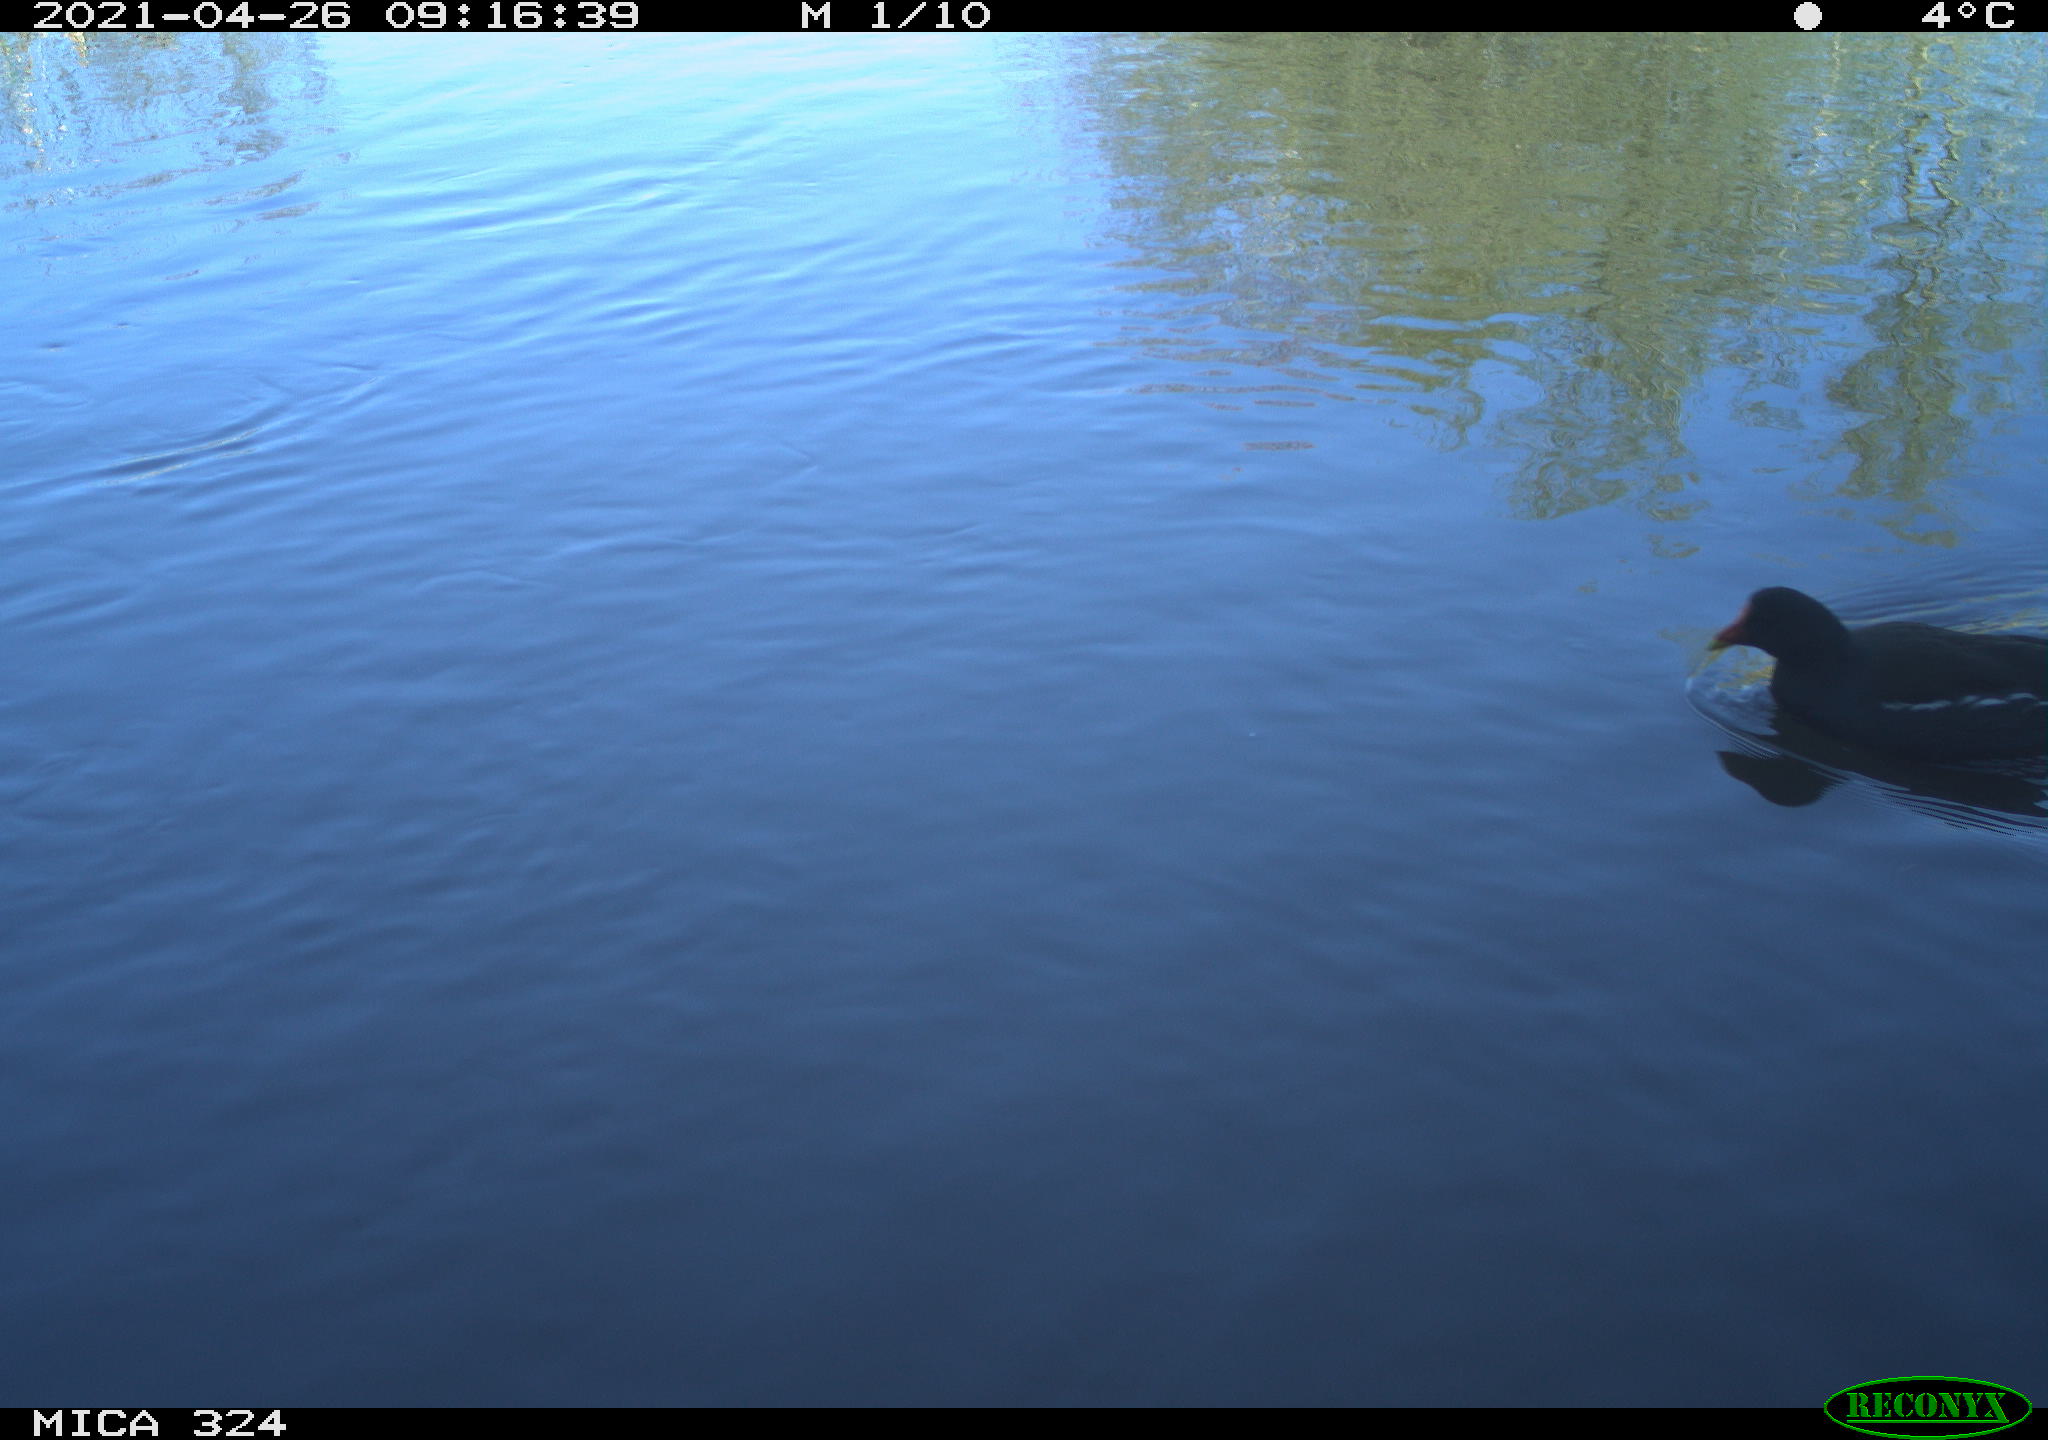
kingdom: Animalia
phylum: Chordata
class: Aves
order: Gruiformes
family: Rallidae
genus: Gallinula
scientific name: Gallinula chloropus
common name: Common moorhen
